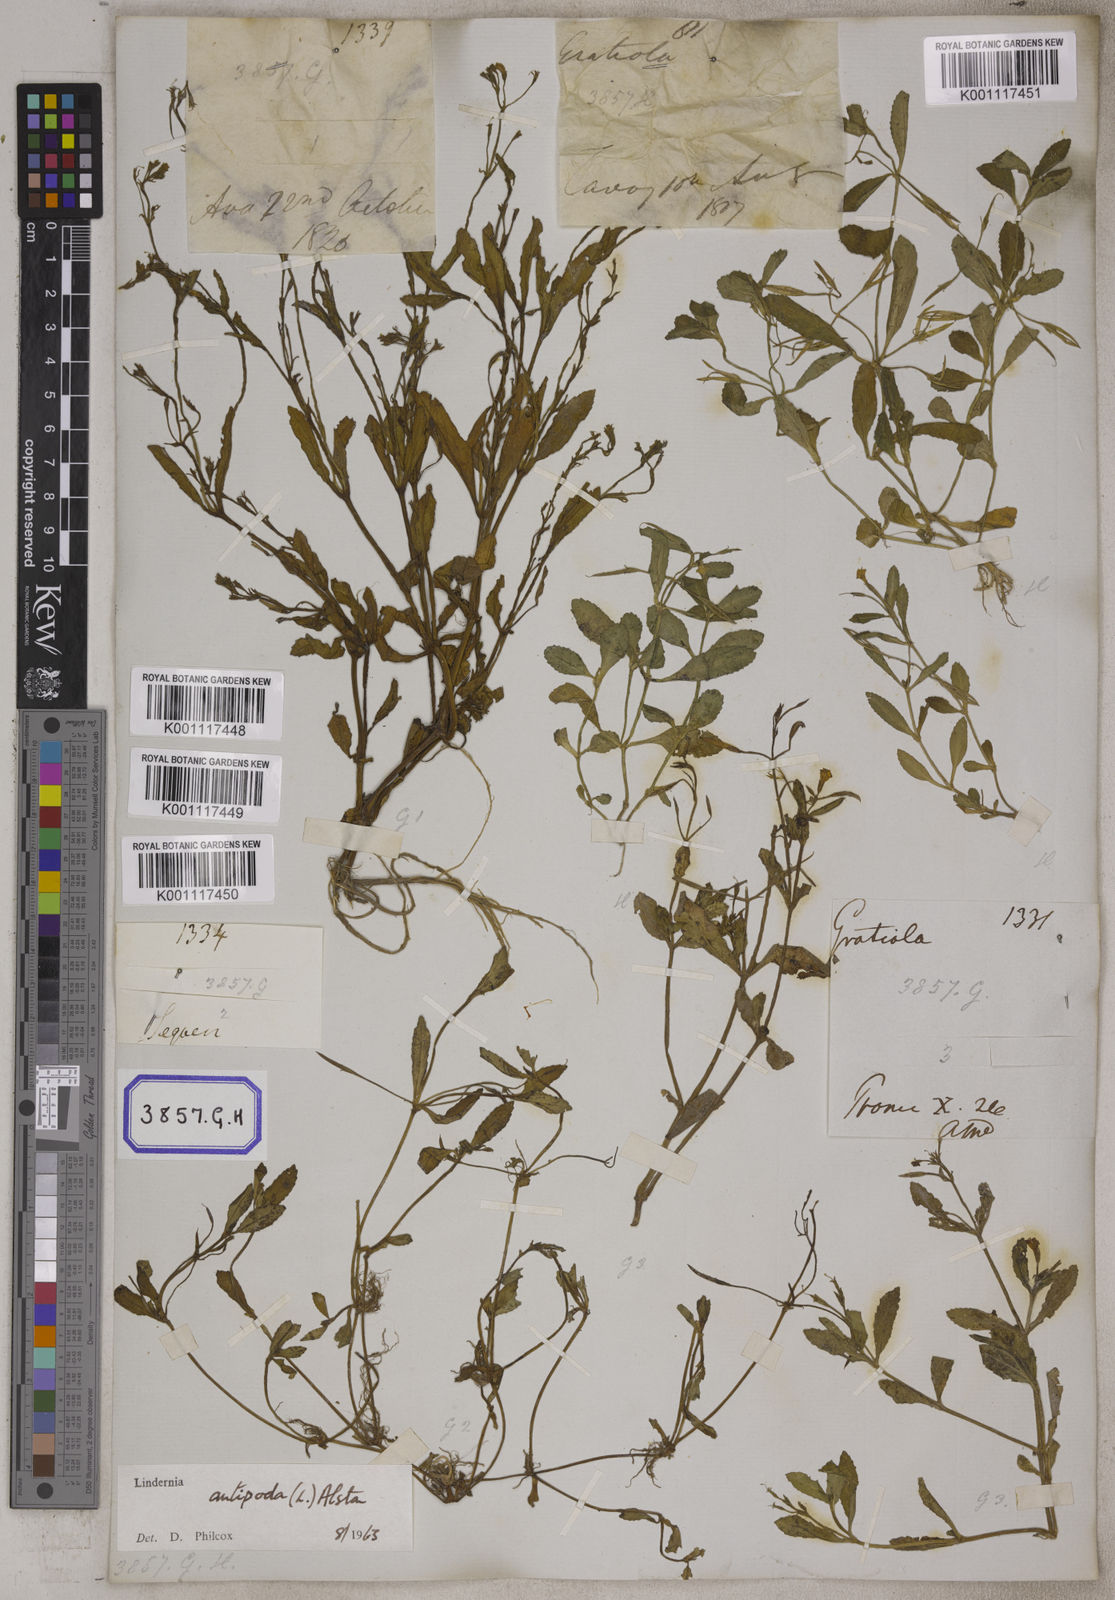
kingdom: Plantae
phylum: Tracheophyta
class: Magnoliopsida
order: Lamiales
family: Linderniaceae
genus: Bonnaya
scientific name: Bonnaya veronicifolia
